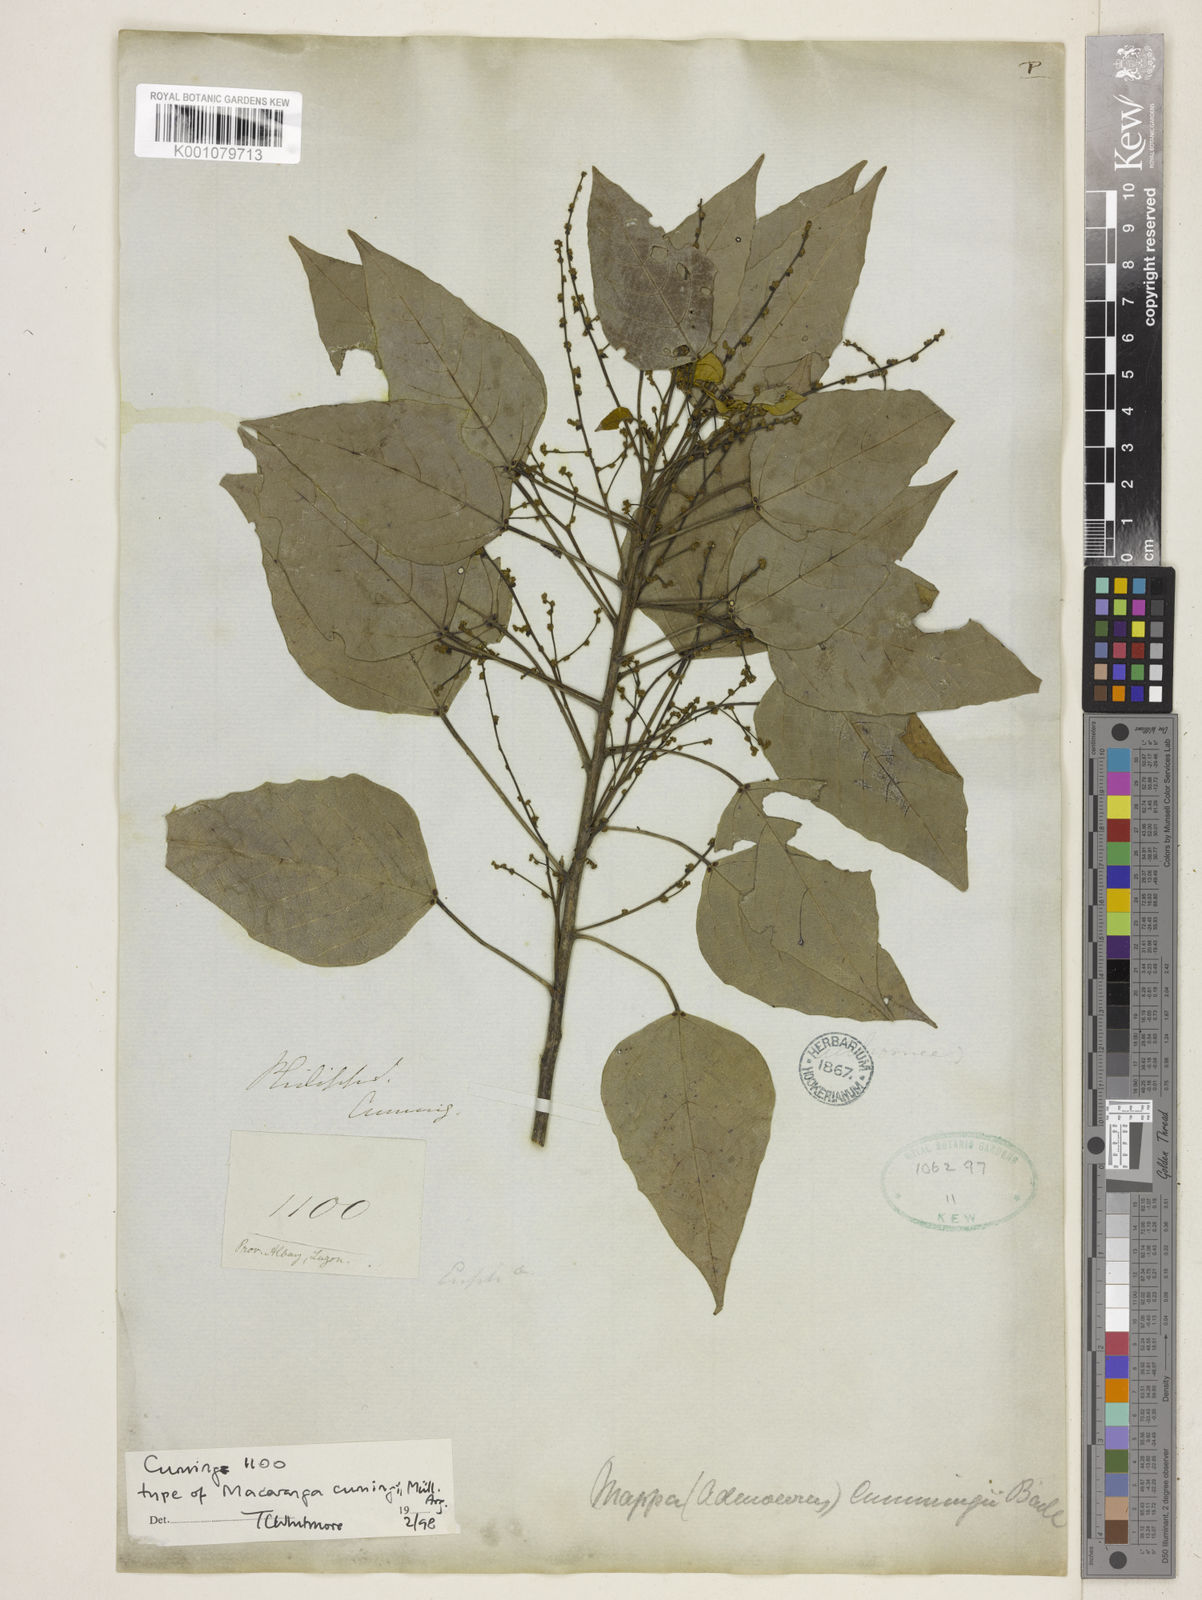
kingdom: Plantae
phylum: Tracheophyta
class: Magnoliopsida
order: Malpighiales
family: Euphorbiaceae
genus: Macaranga
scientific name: Macaranga
